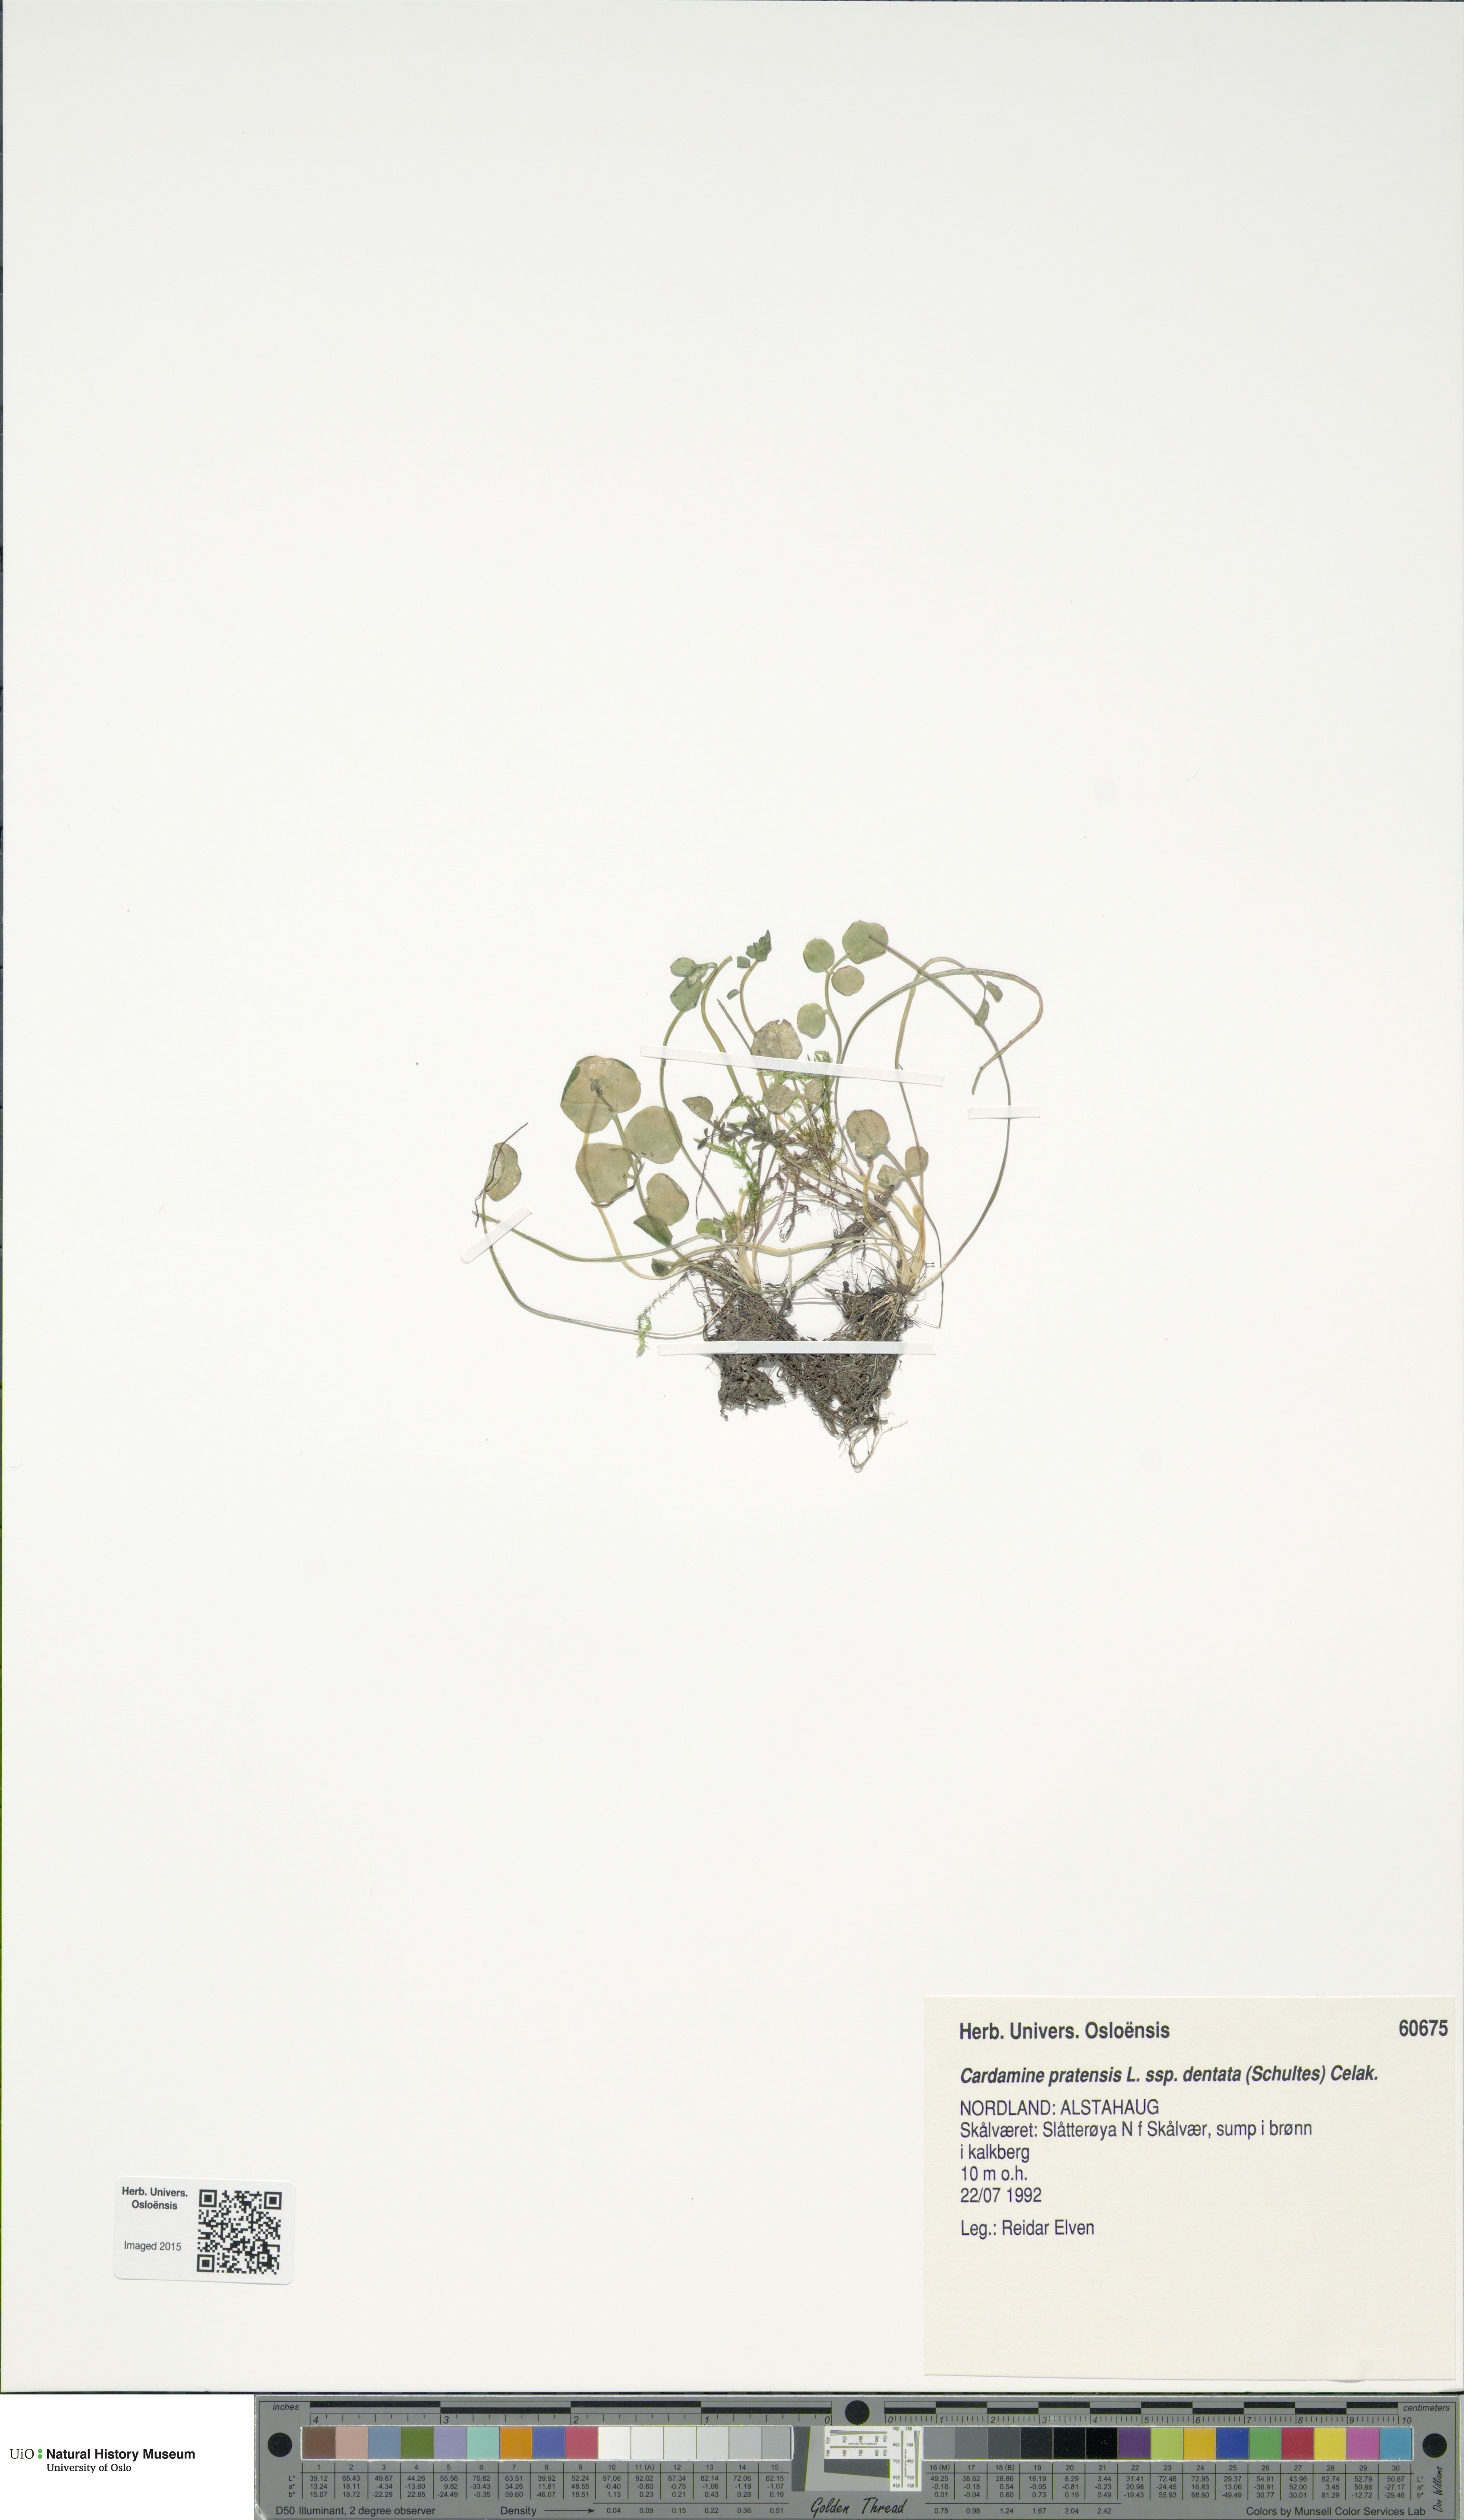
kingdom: Plantae
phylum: Tracheophyta
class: Magnoliopsida
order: Brassicales
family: Brassicaceae
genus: Cardamine
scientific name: Cardamine dentata
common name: Toothed bittercress
